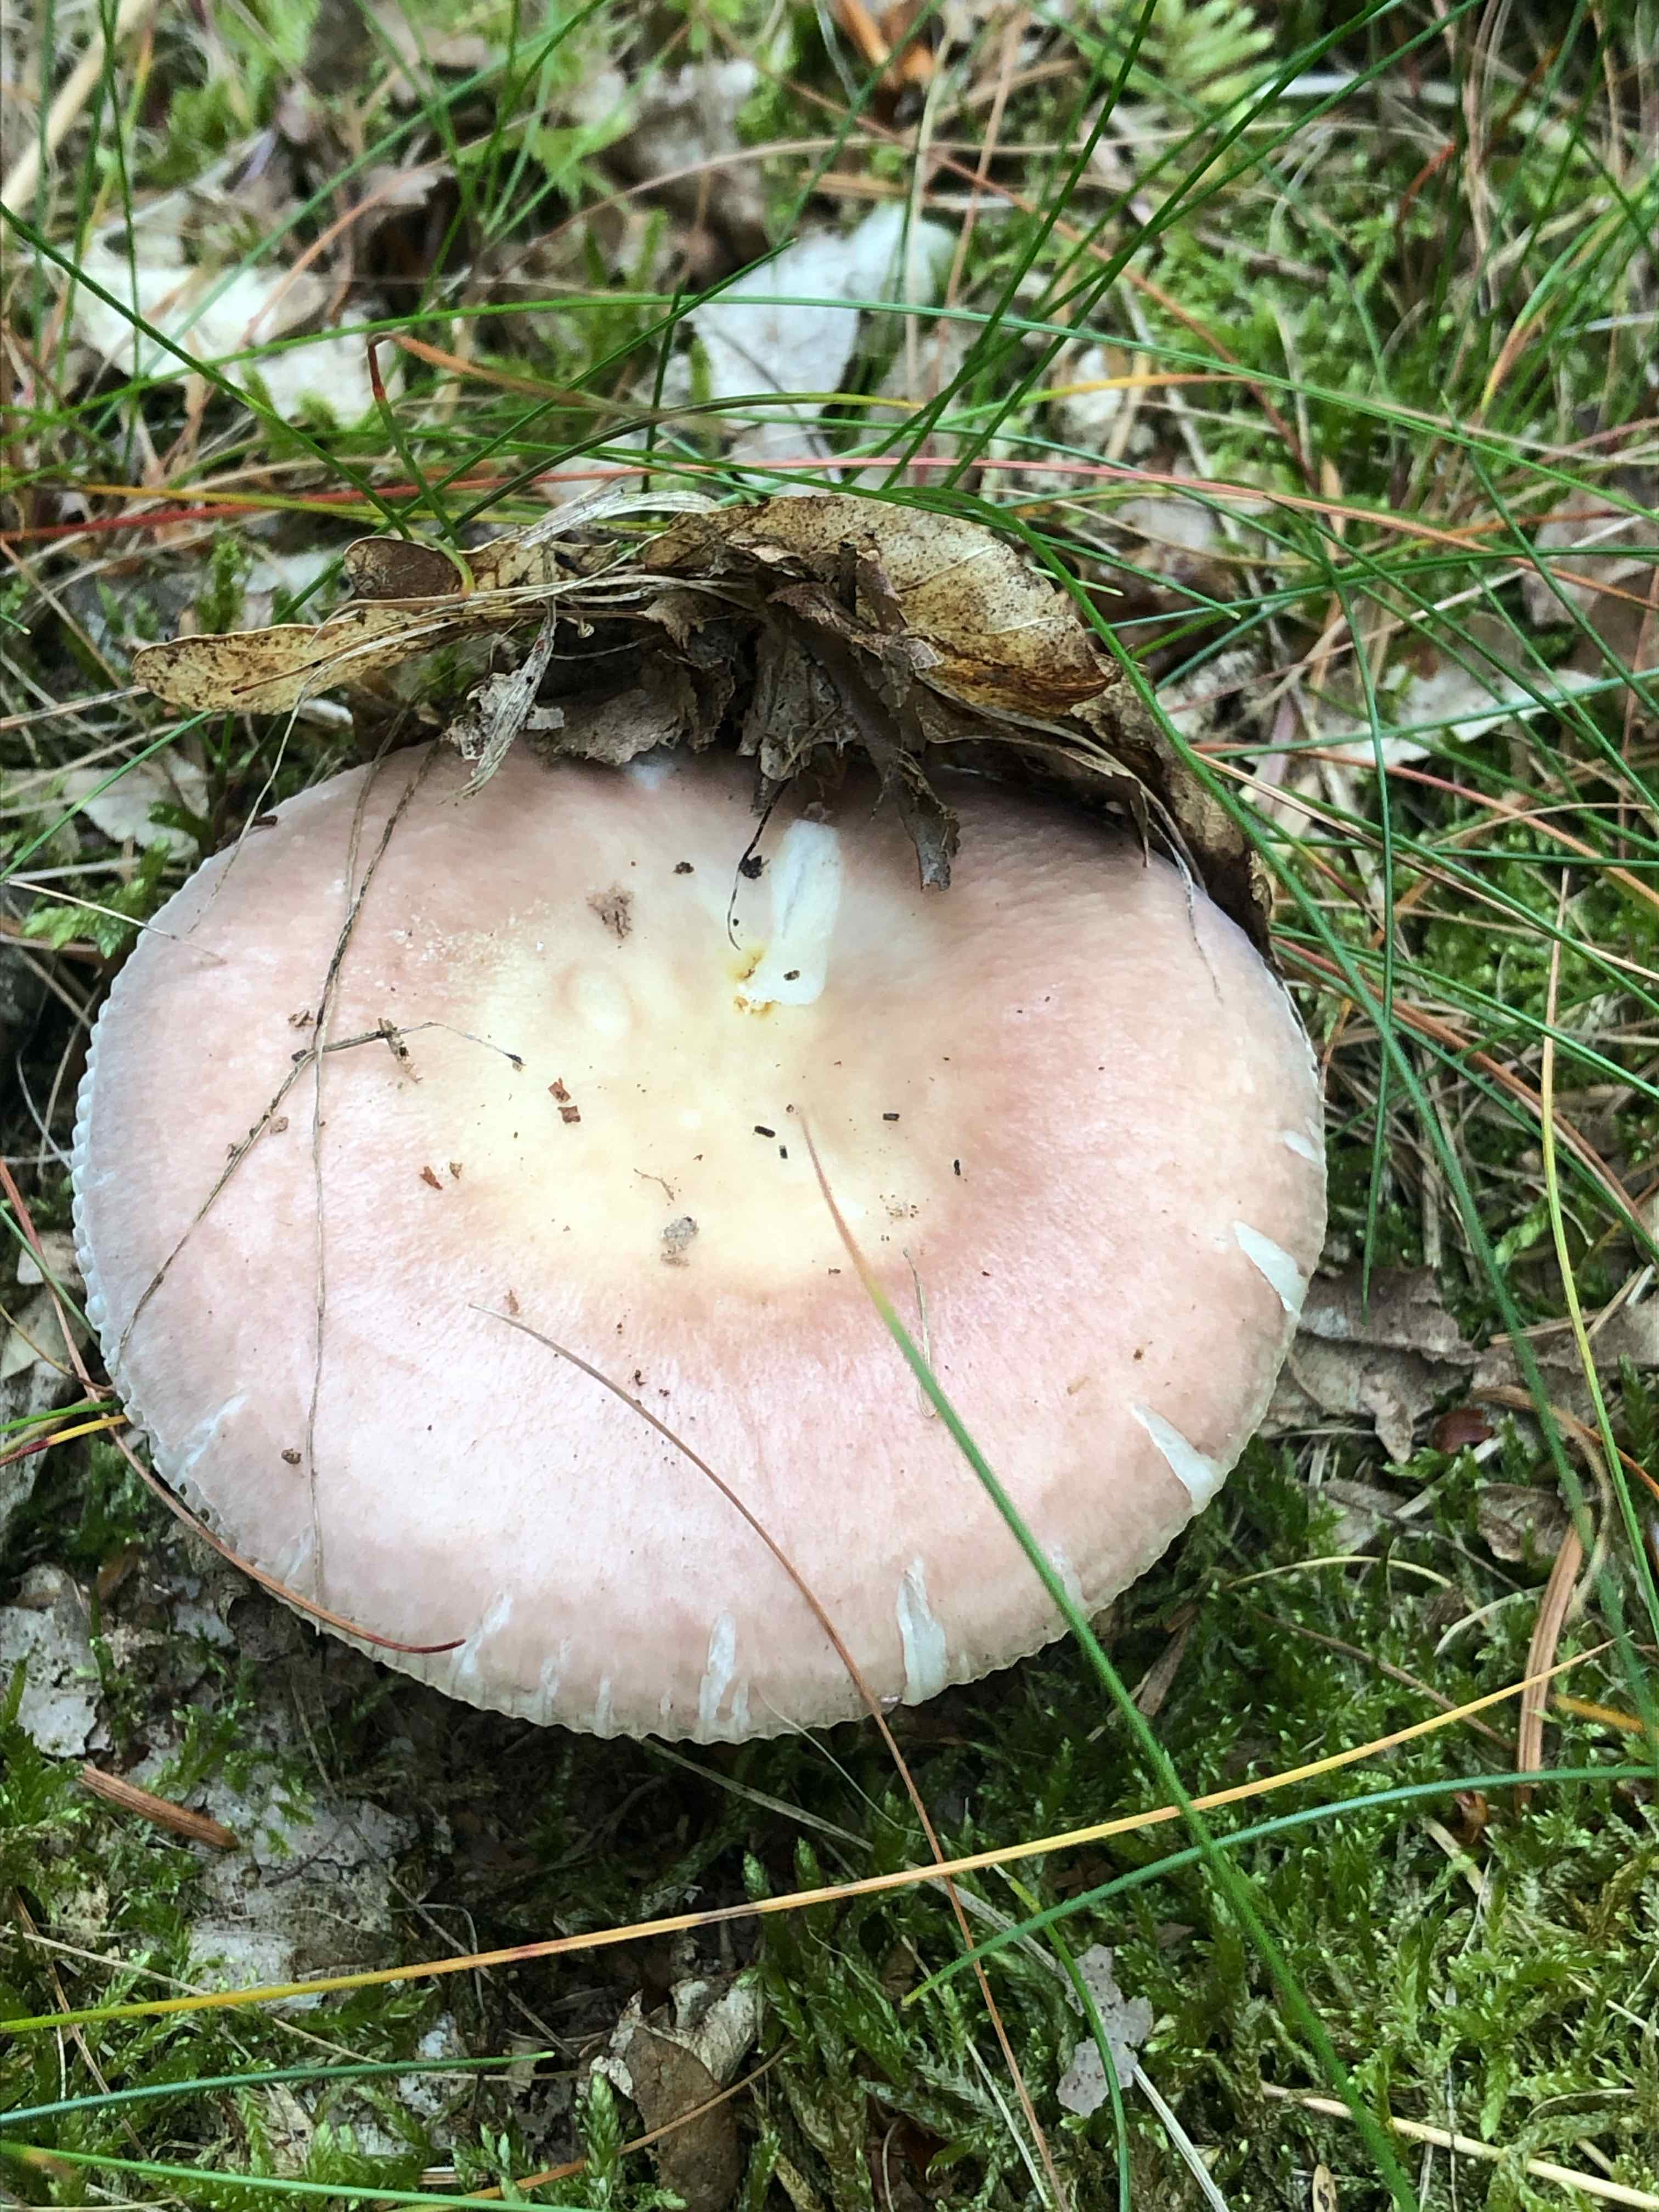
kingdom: Fungi
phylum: Basidiomycota
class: Agaricomycetes
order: Russulales
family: Russulaceae
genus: Russula
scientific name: Russula vesca
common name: spiselig skørhat
